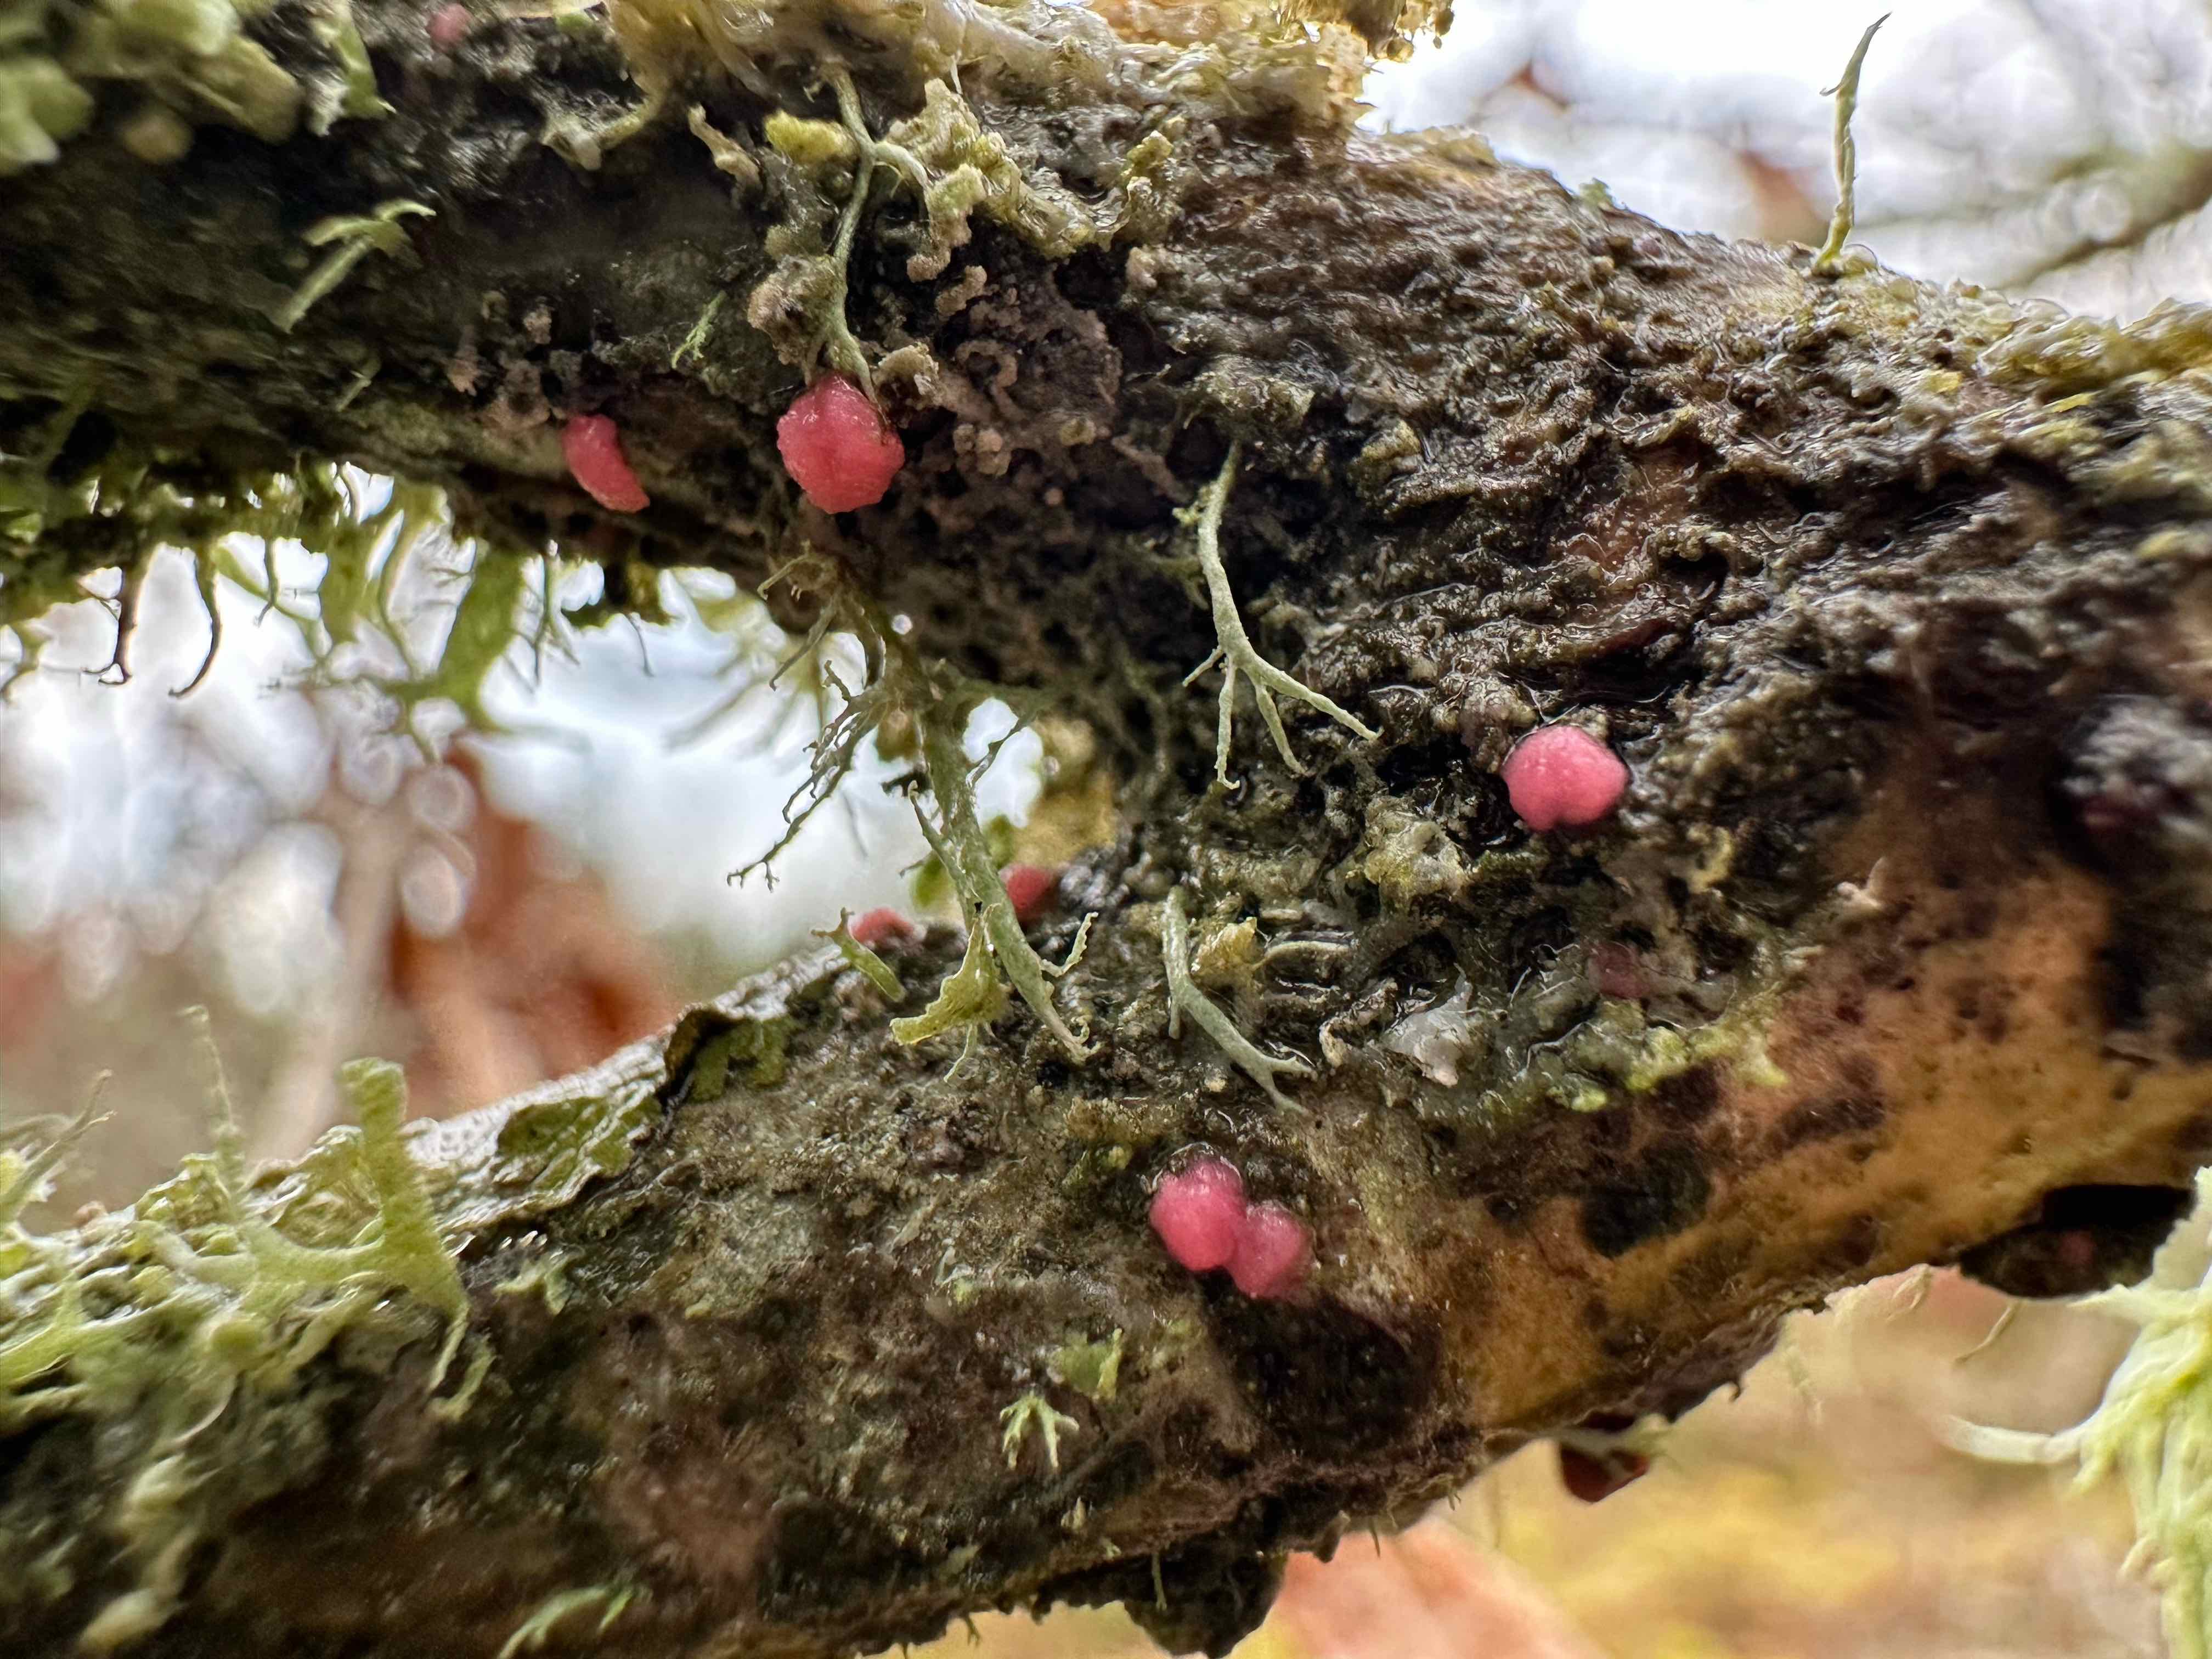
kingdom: Fungi
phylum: Ascomycota
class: Sordariomycetes
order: Hypocreales
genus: Illosporiopsis
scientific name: Illosporiopsis christiansenii
